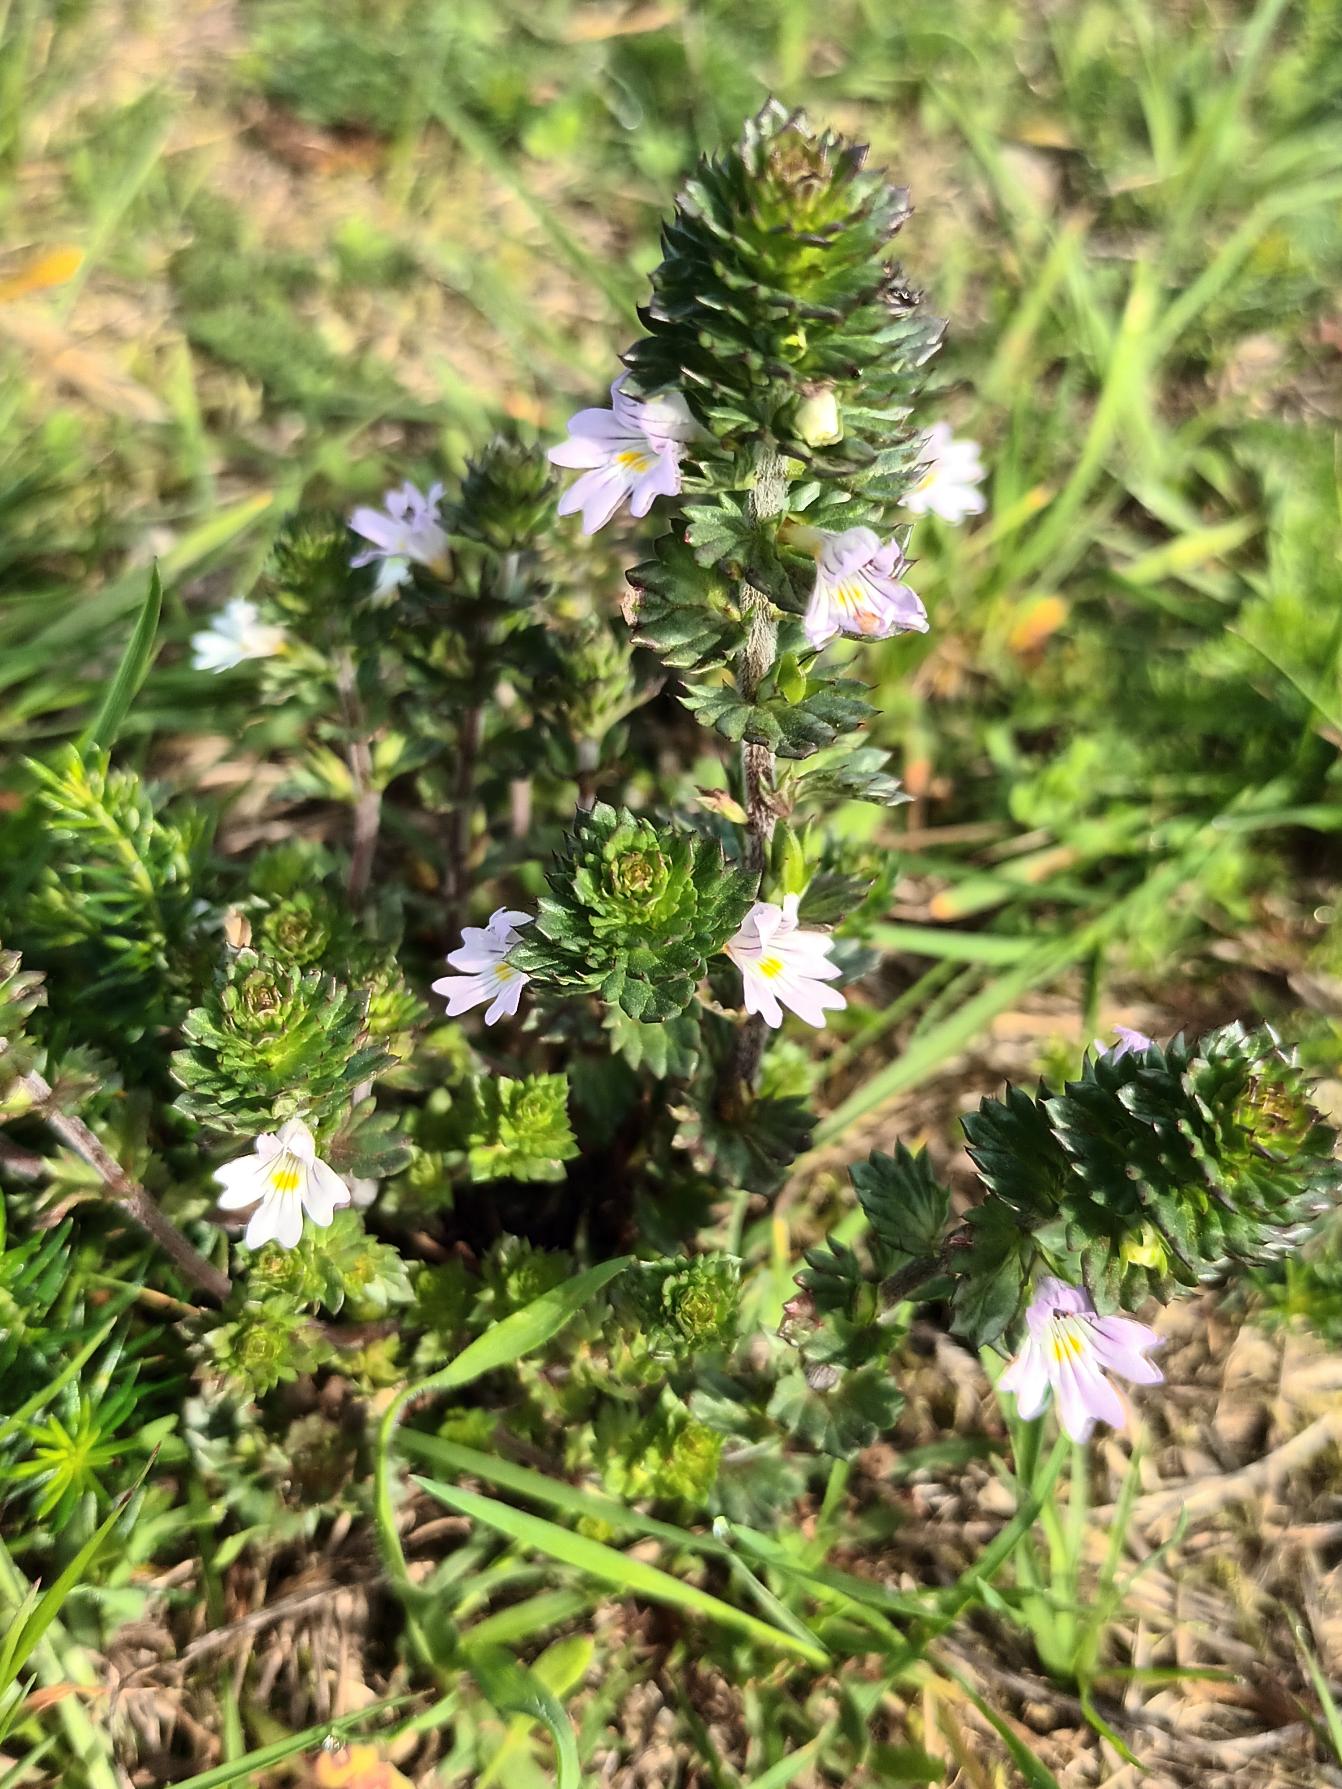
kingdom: Plantae
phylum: Tracheophyta
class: Magnoliopsida
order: Lamiales
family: Orobanchaceae
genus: Euphrasia
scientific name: Euphrasia nemorosa
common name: Kort øjentrøst
